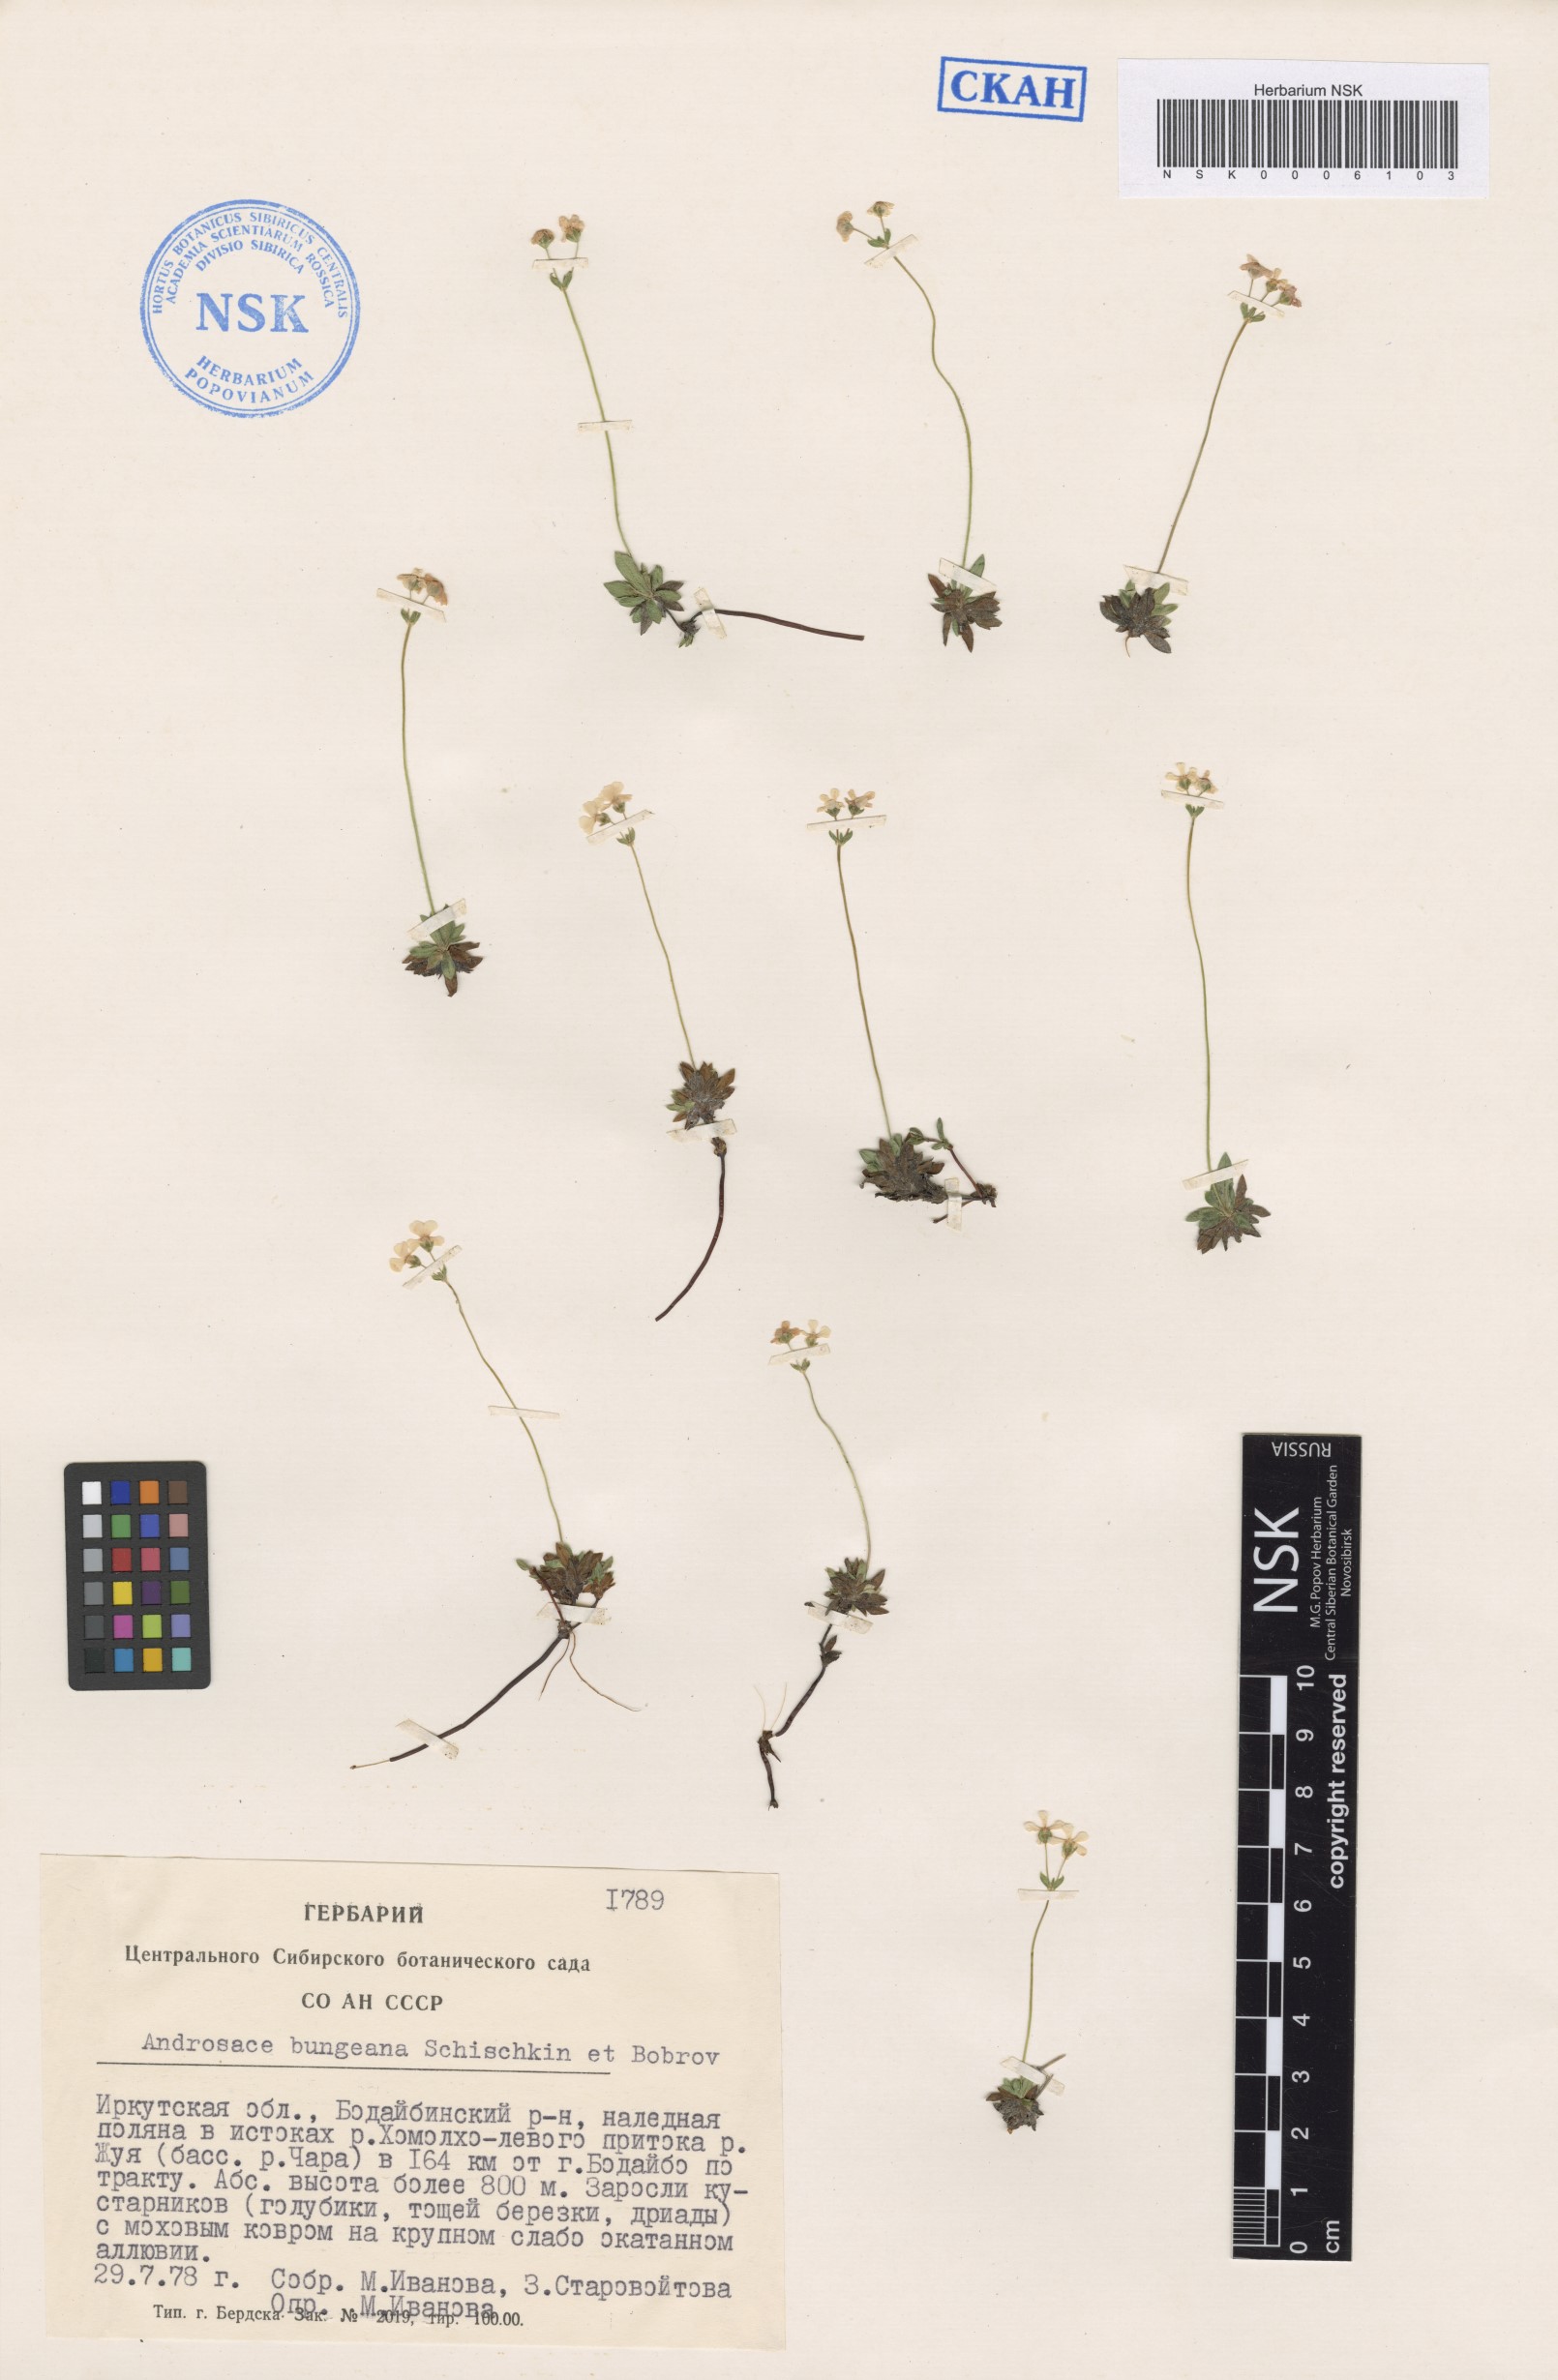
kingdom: Plantae
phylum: Tracheophyta
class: Magnoliopsida
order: Ericales
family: Primulaceae
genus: Androsace
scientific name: Androsace bungeana
